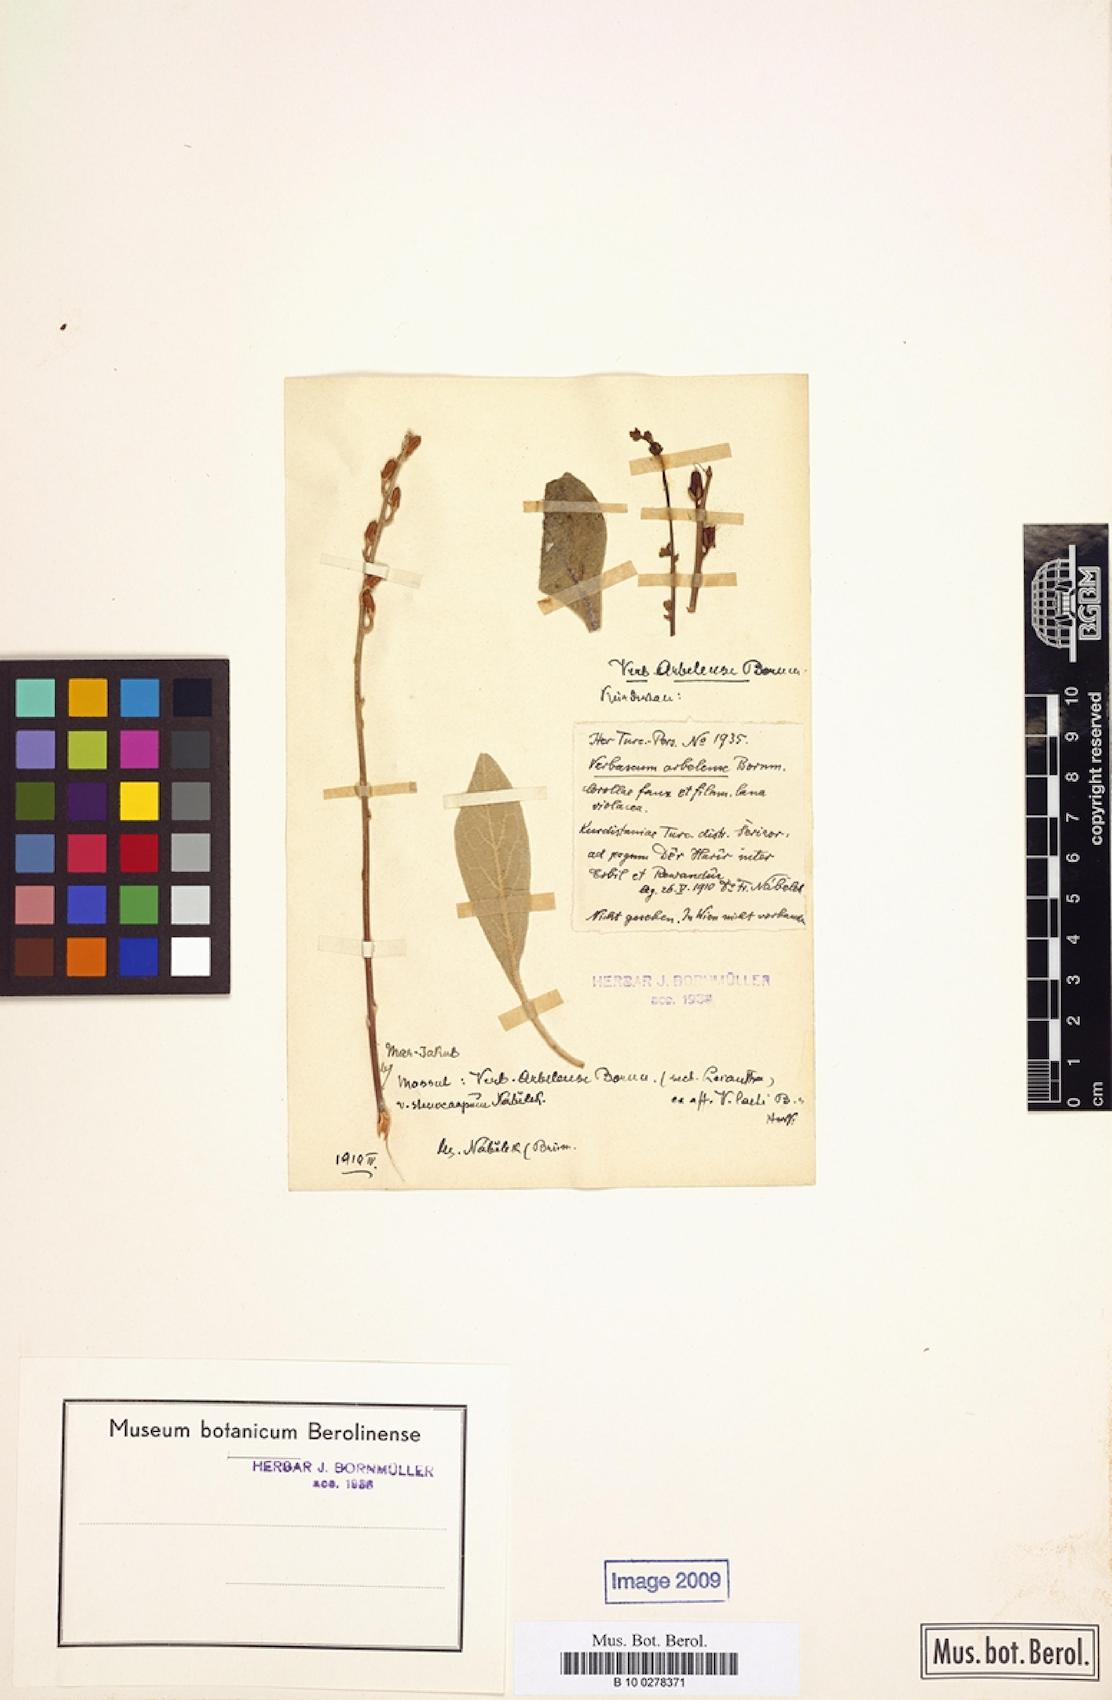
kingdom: Plantae
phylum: Tracheophyta
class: Magnoliopsida
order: Lamiales
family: Scrophulariaceae
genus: Verbascum
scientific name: Verbascum arbelense
